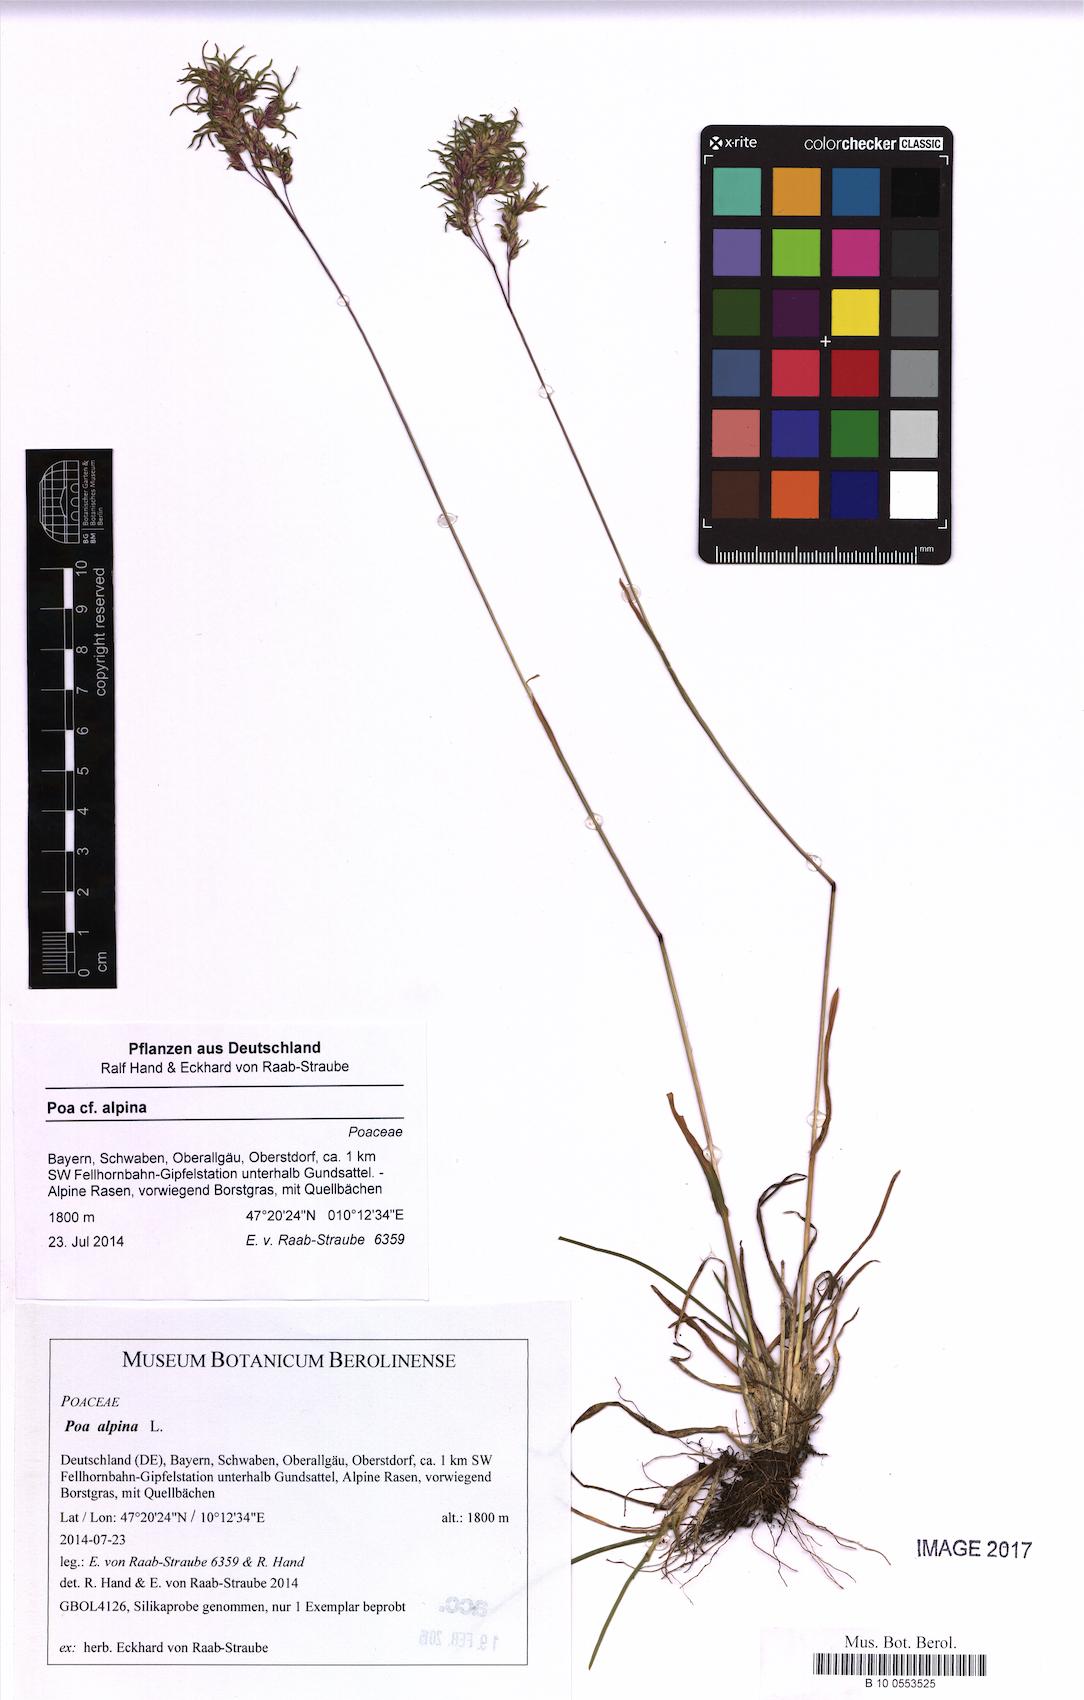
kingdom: Plantae
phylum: Tracheophyta
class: Liliopsida
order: Poales
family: Poaceae
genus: Poa
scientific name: Poa alpina
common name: Alpine bluegrass
